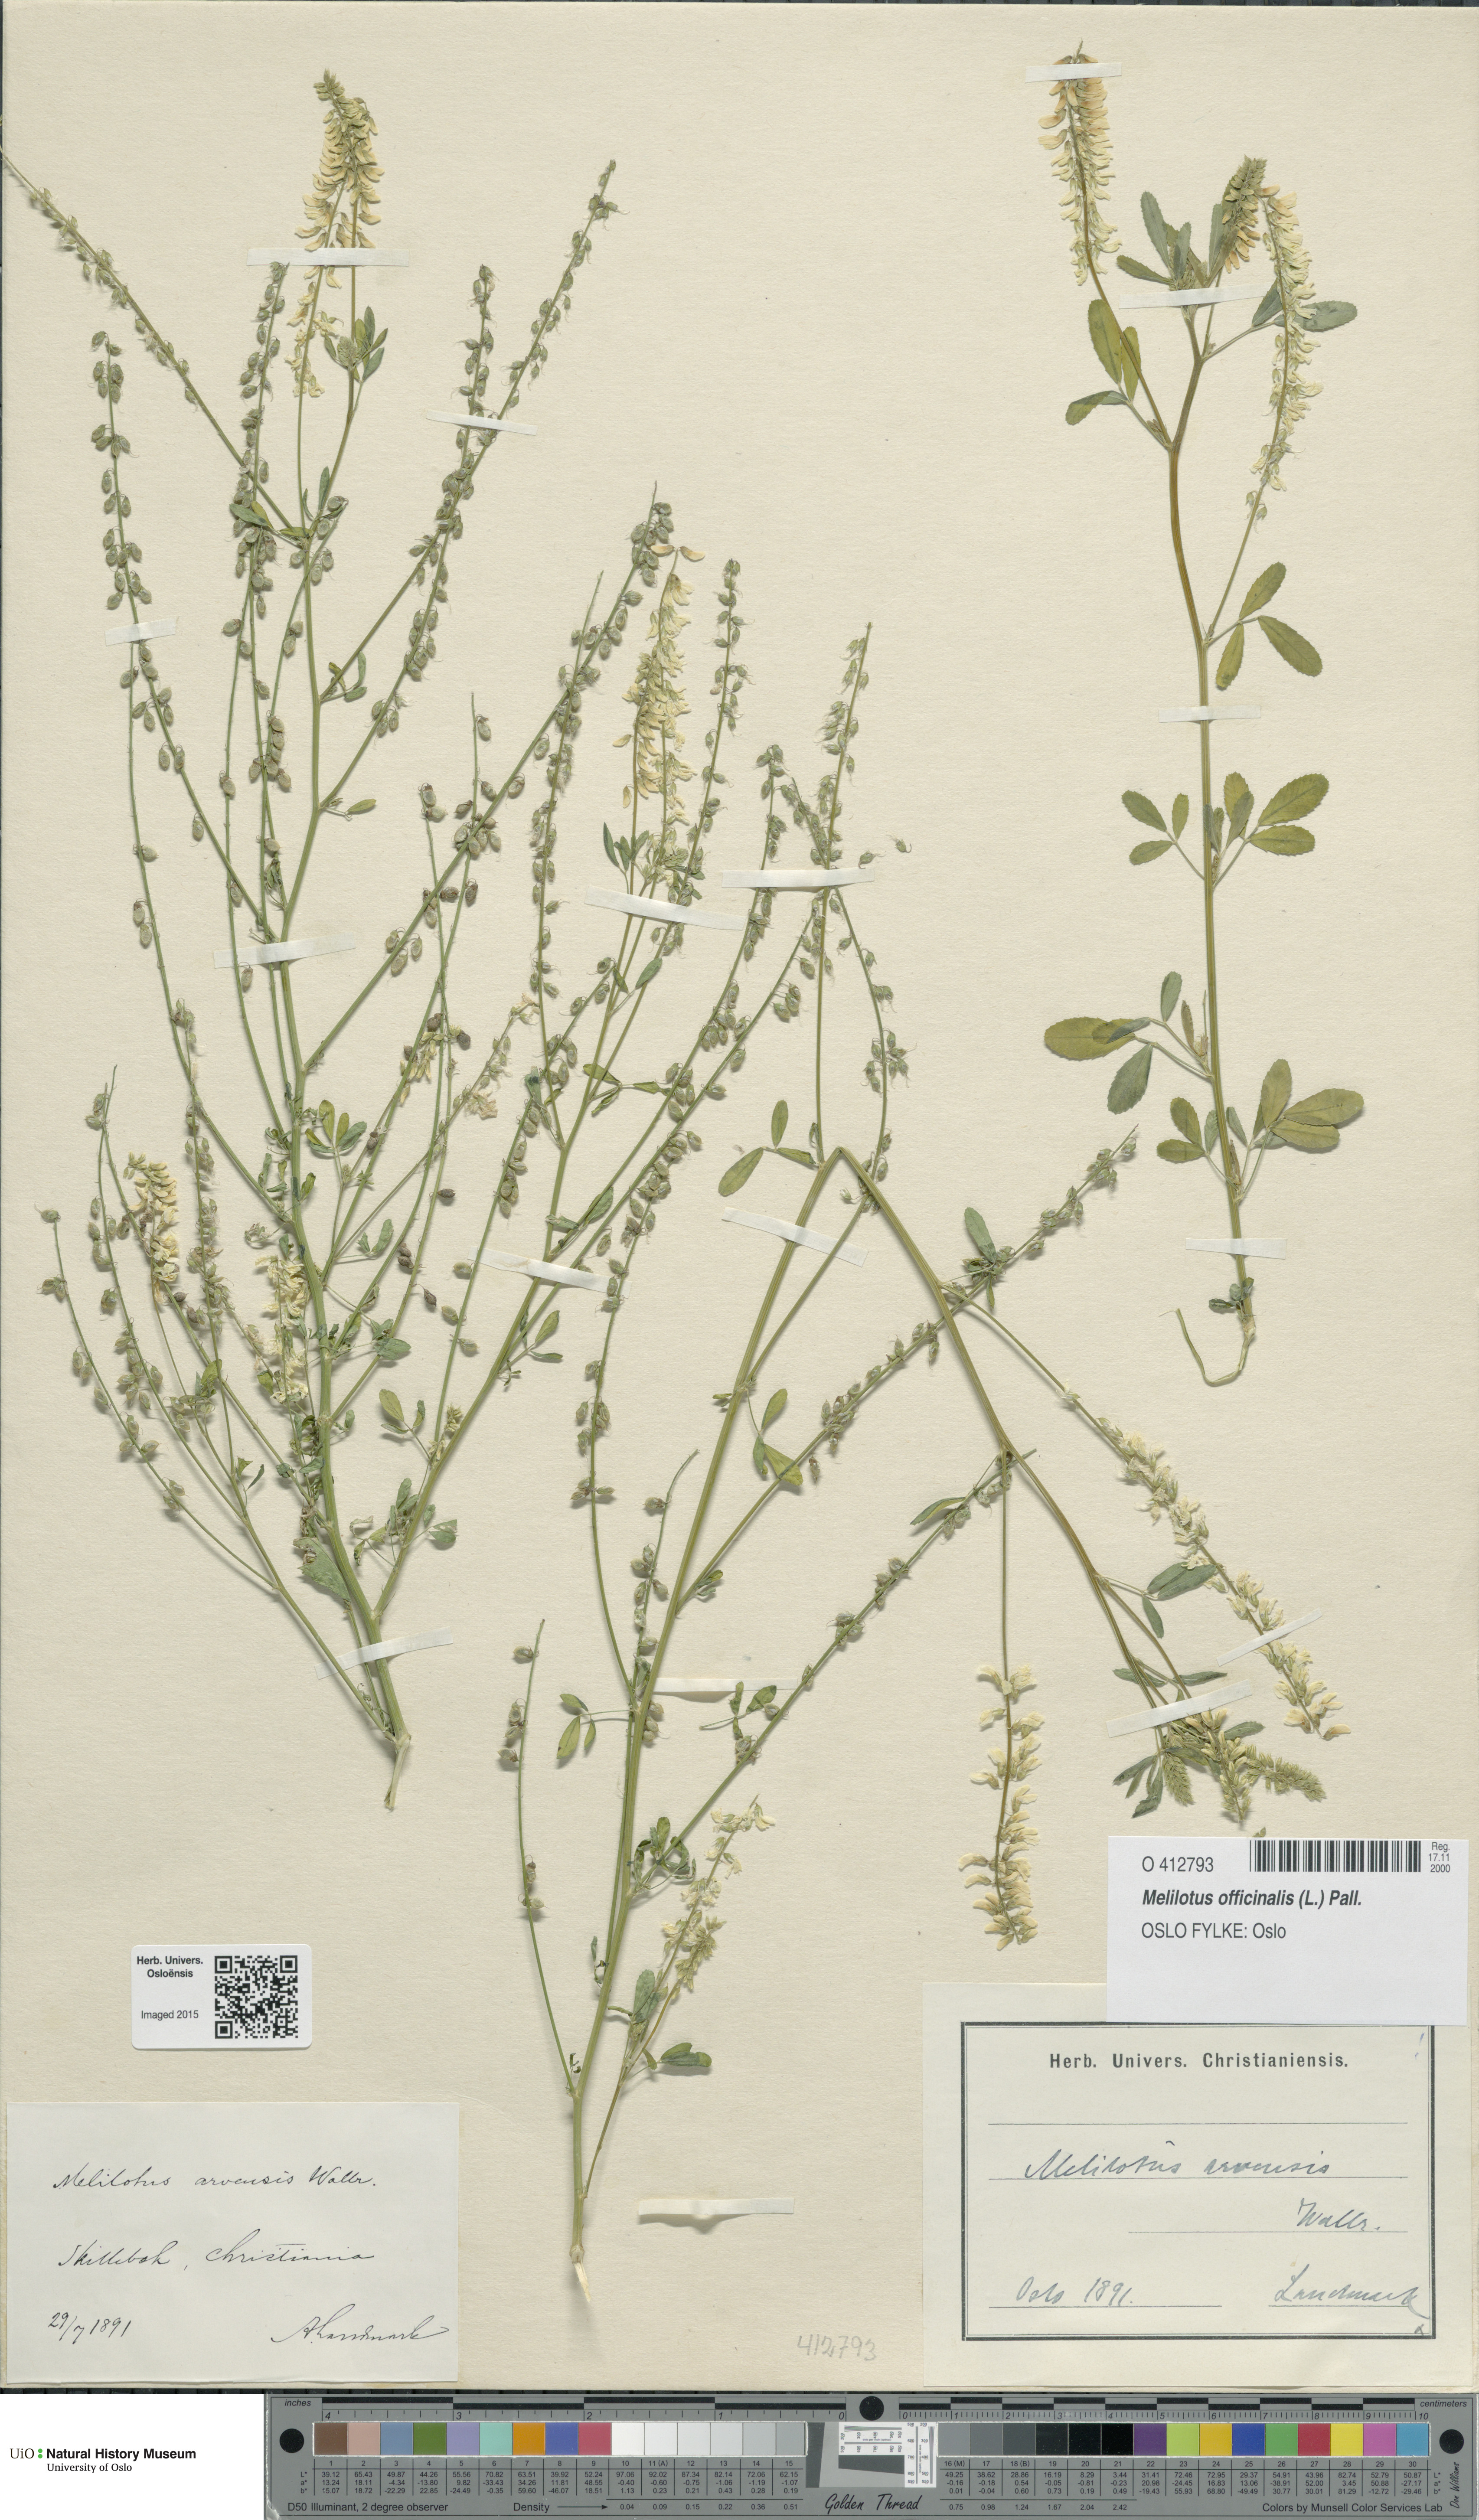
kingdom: Plantae
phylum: Tracheophyta
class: Magnoliopsida
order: Fabales
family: Fabaceae
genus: Melilotus
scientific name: Melilotus officinalis
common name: Sweetclover
